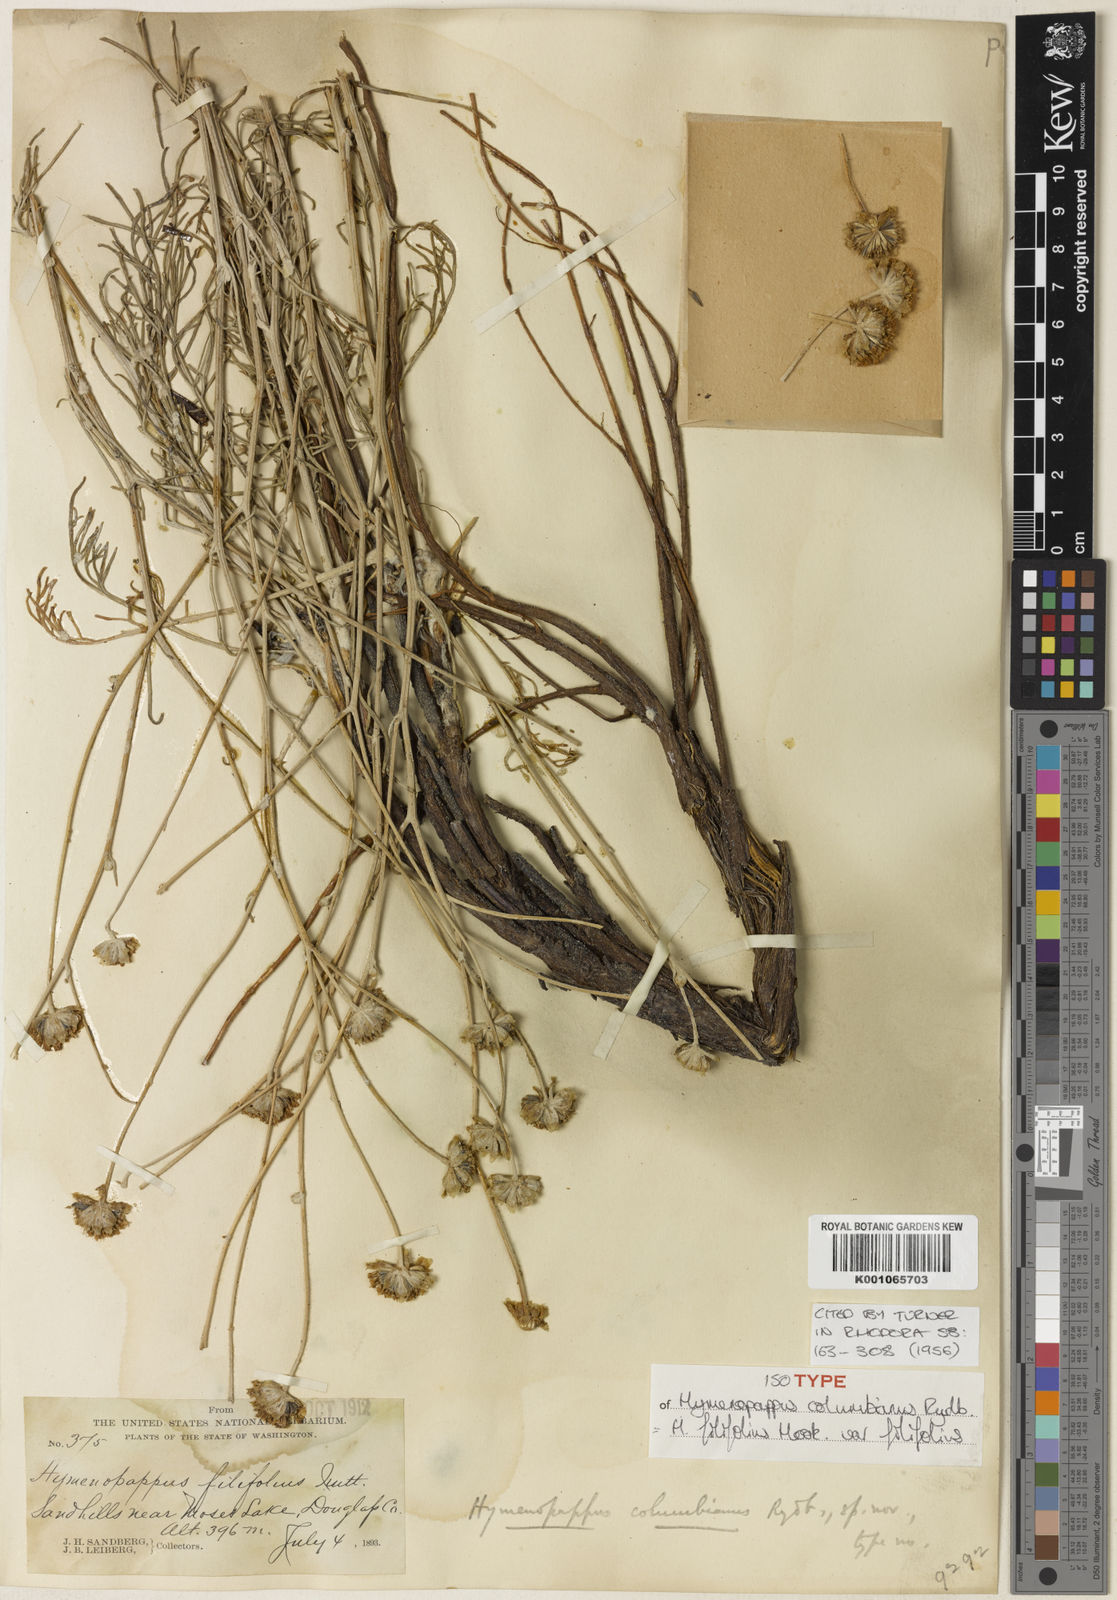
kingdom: Plantae
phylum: Tracheophyta
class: Magnoliopsida
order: Asterales
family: Asteraceae
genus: Hymenopappus
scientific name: Hymenopappus filifolius
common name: Columbia cutleaf
